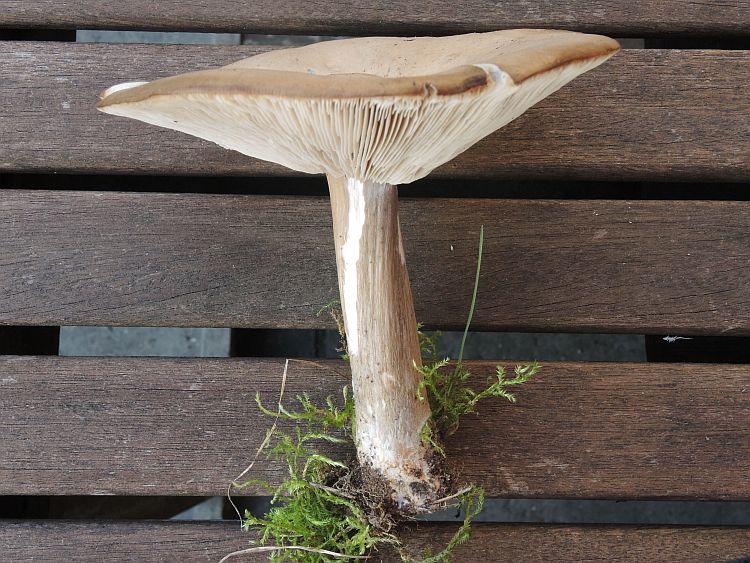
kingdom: Fungi
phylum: Basidiomycota
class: Agaricomycetes
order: Agaricales
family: Tricholomataceae
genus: Melanoleuca
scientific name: Melanoleuca grammopodia
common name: stribestokket munkehat
